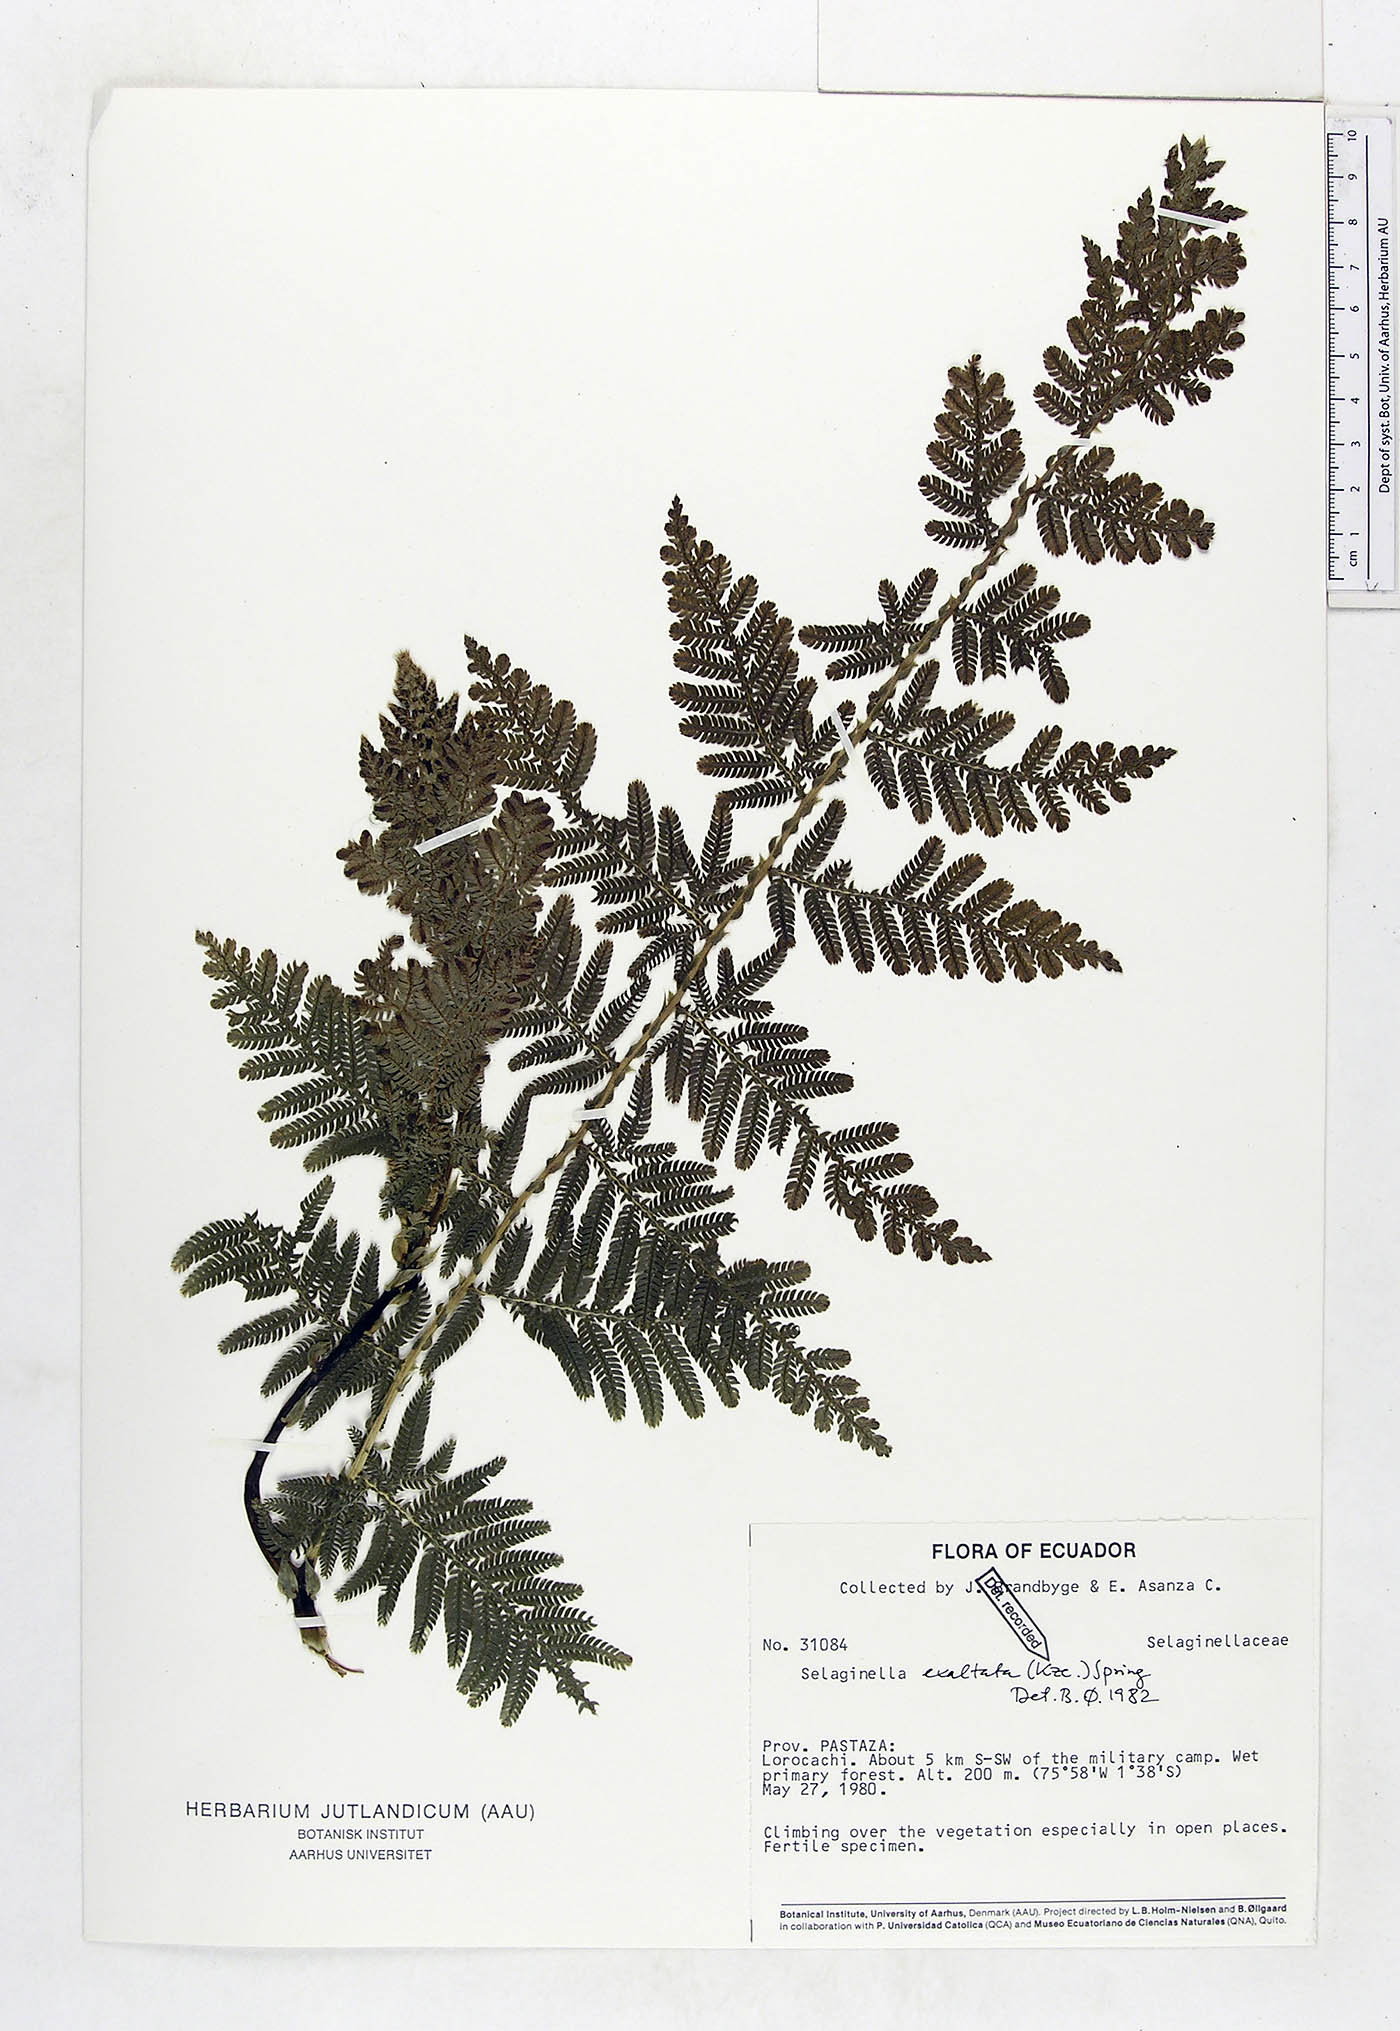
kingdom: Plantae
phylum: Tracheophyta
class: Lycopodiopsida
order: Selaginellales
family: Selaginellaceae
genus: Selaginella
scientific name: Selaginella exaltata
